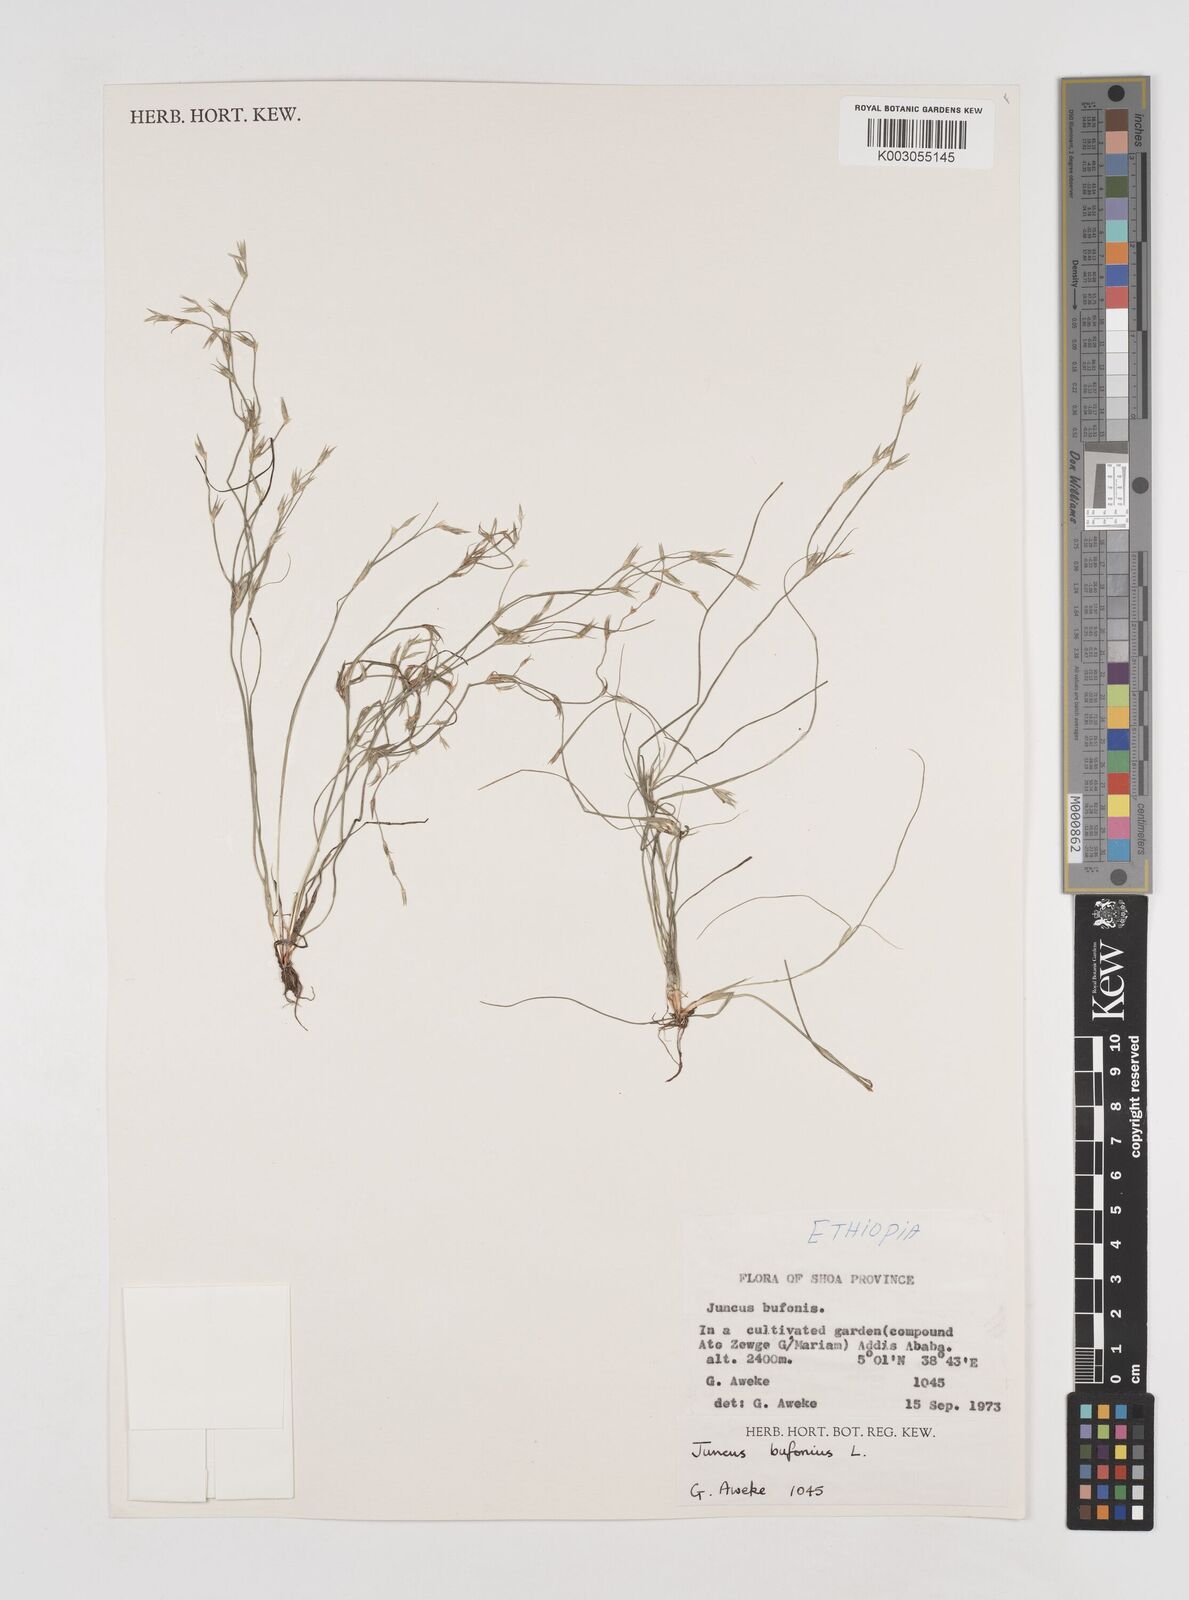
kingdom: Plantae
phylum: Tracheophyta
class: Liliopsida
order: Poales
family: Juncaceae
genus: Juncus
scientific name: Juncus bufonius
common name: Toad rush
